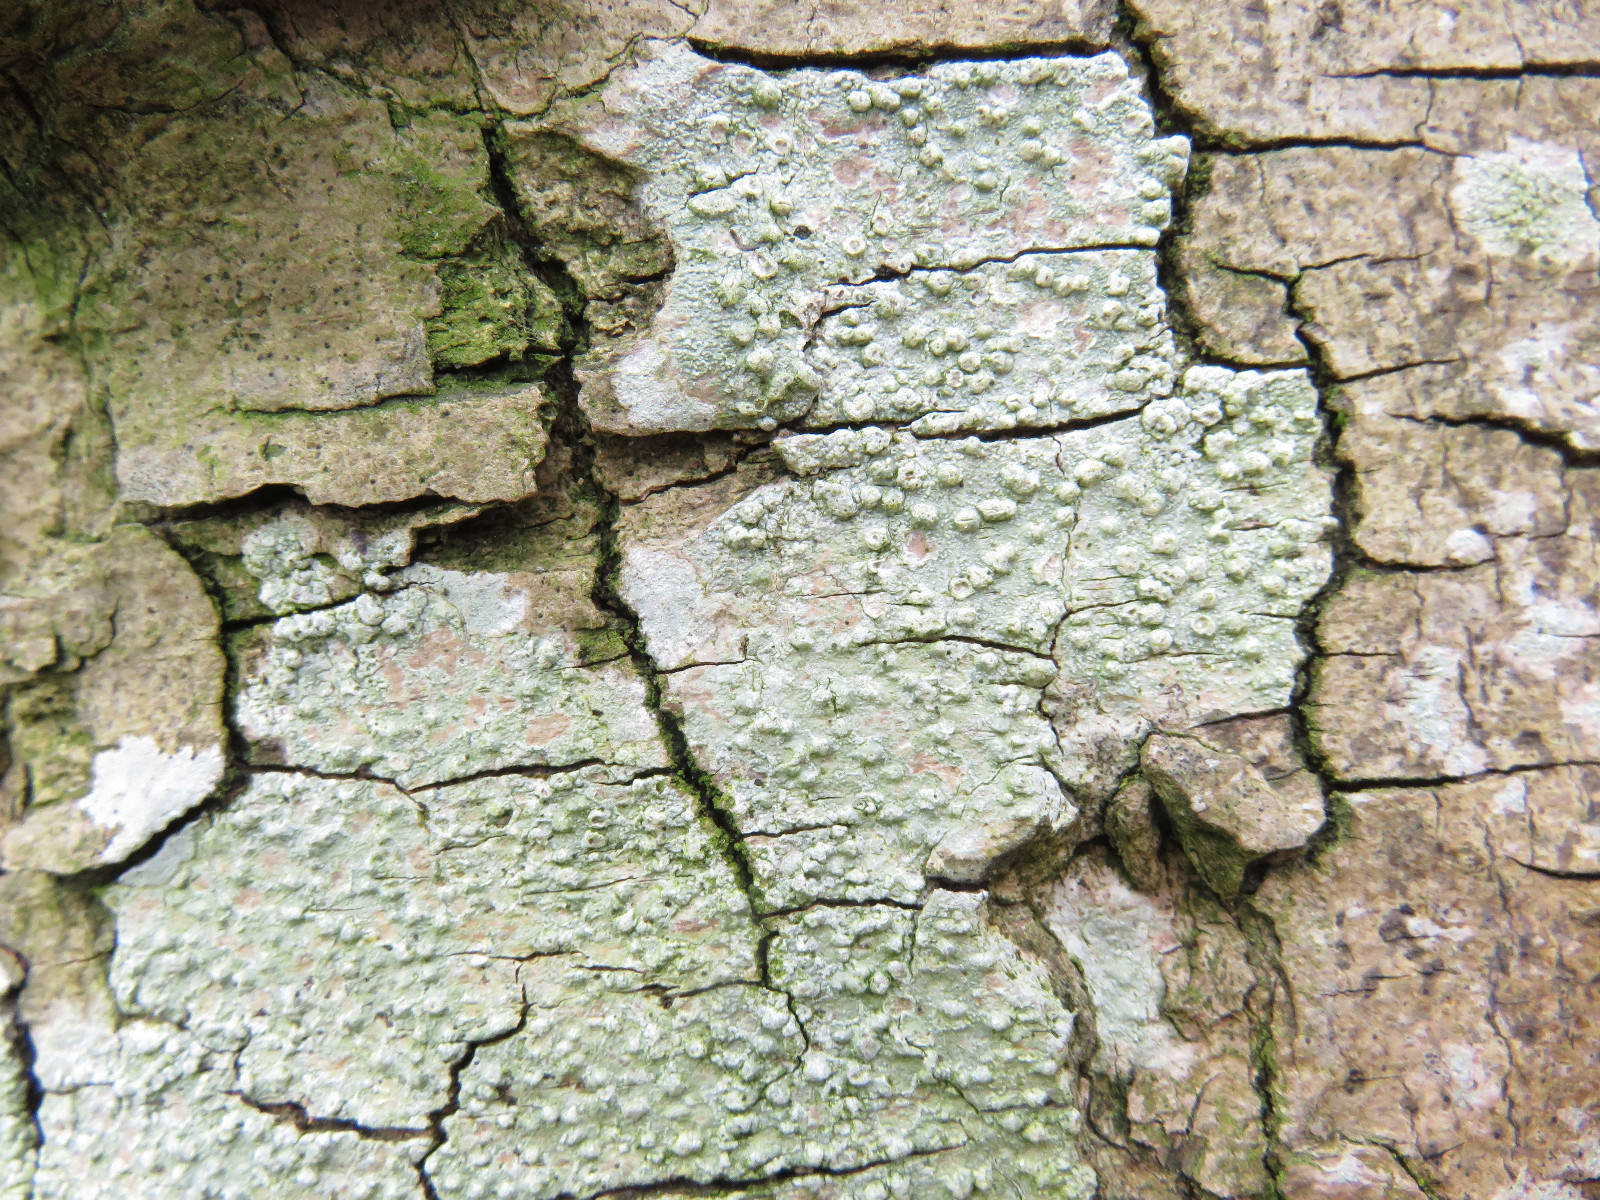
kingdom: Fungi
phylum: Ascomycota
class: Lecanoromycetes
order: Pertusariales
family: Pertusariaceae
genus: Pertusaria
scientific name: Pertusaria
